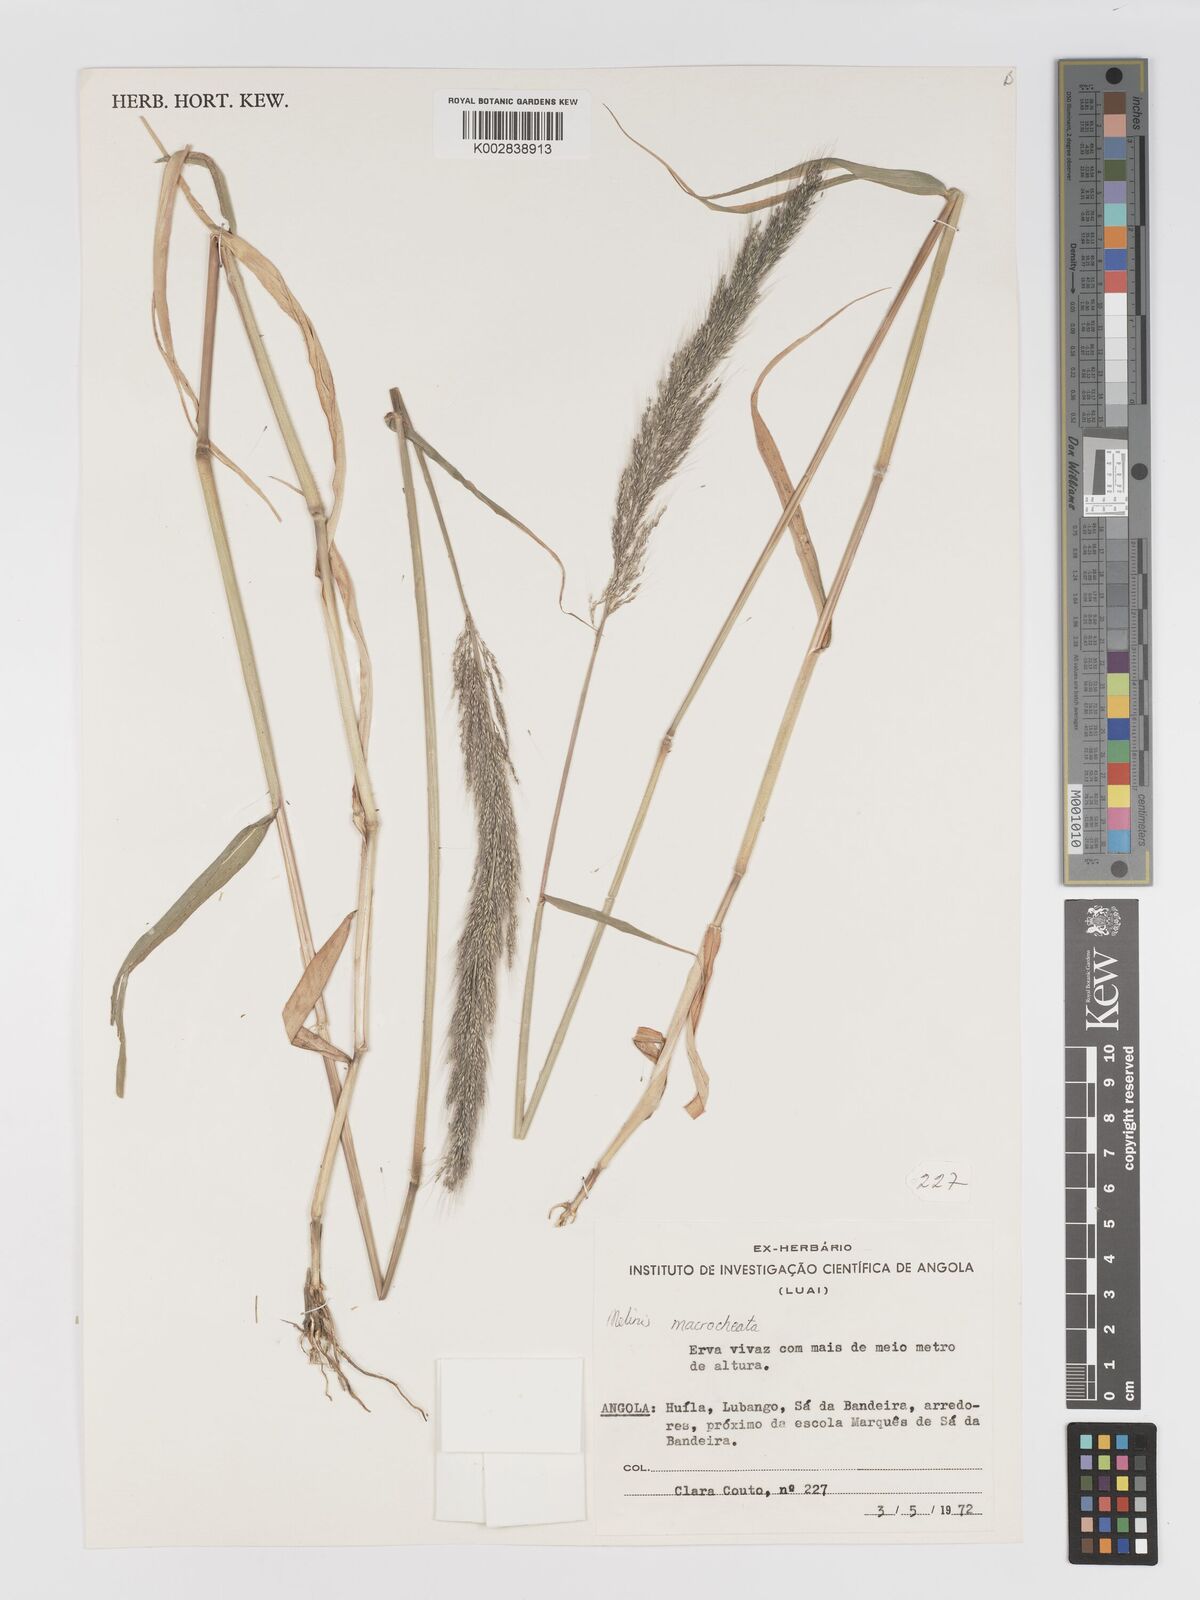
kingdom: Plantae
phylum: Tracheophyta
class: Liliopsida
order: Poales
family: Poaceae
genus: Melinis
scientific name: Melinis macrochaeta
